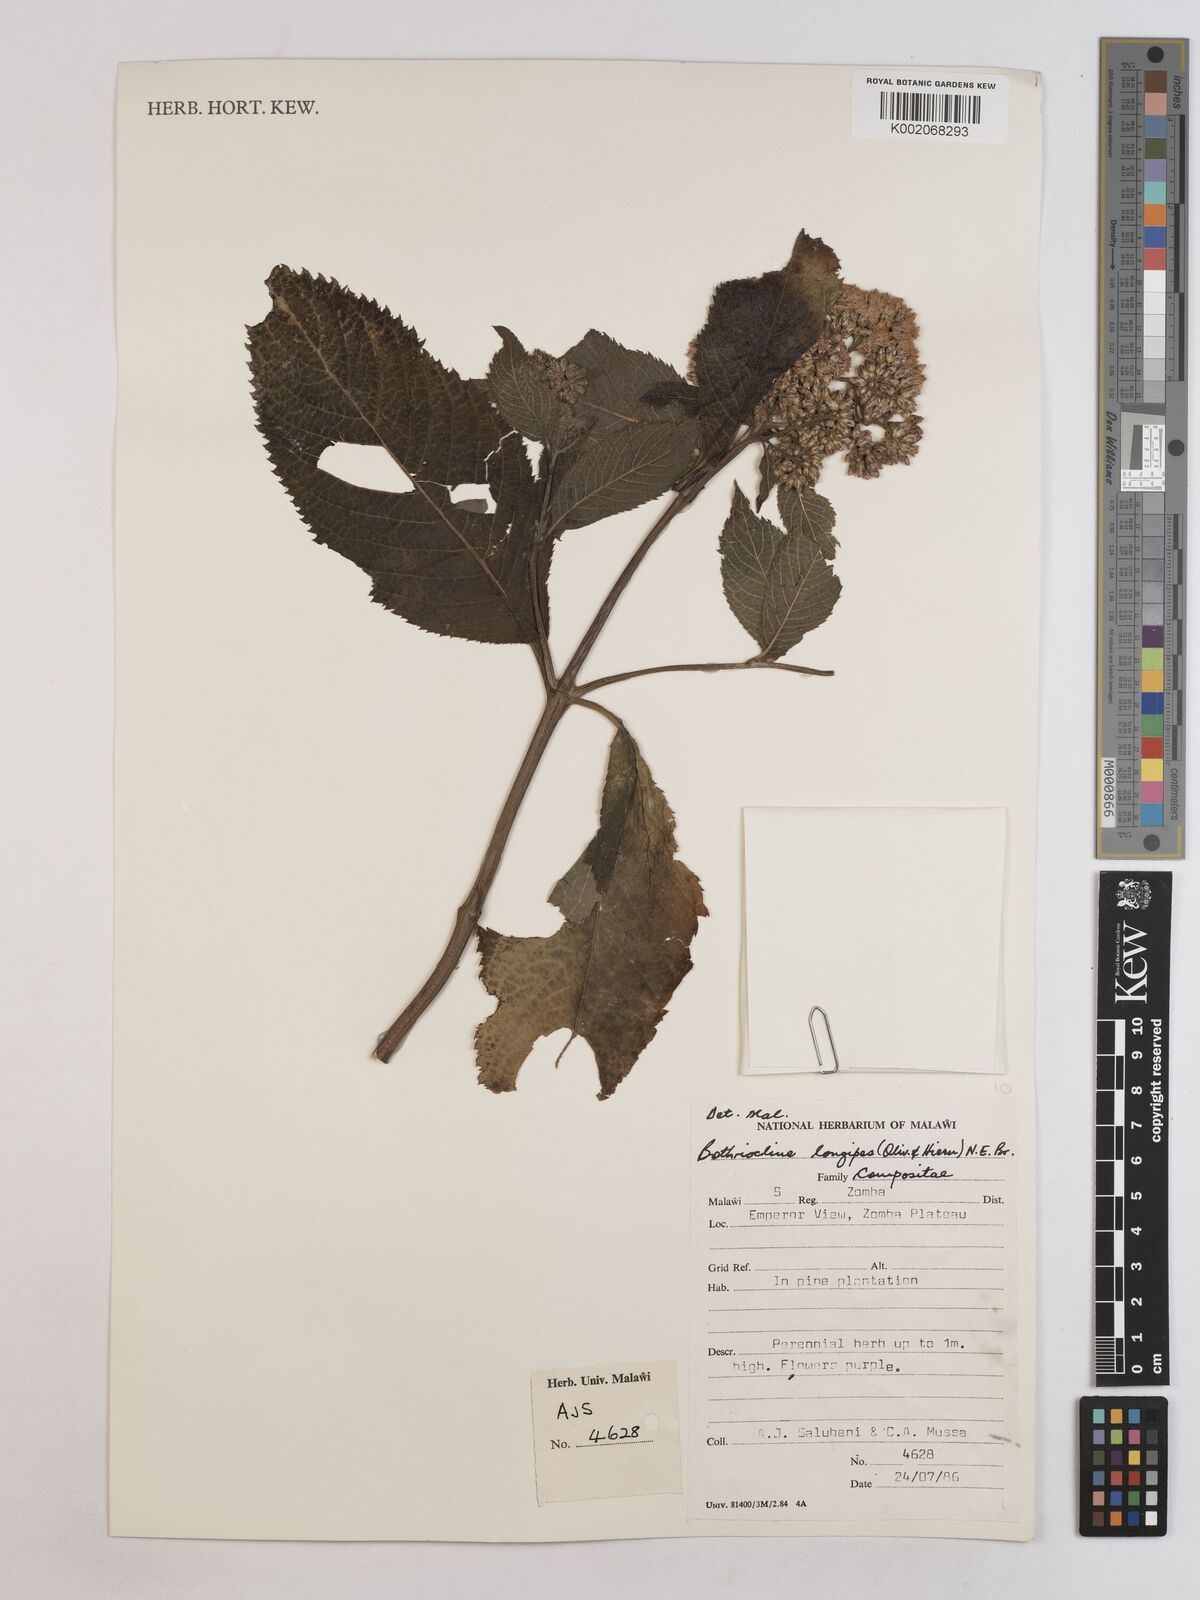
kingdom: Plantae
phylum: Tracheophyta
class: Magnoliopsida
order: Asterales
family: Asteraceae
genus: Bothriocline
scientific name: Bothriocline longipes
